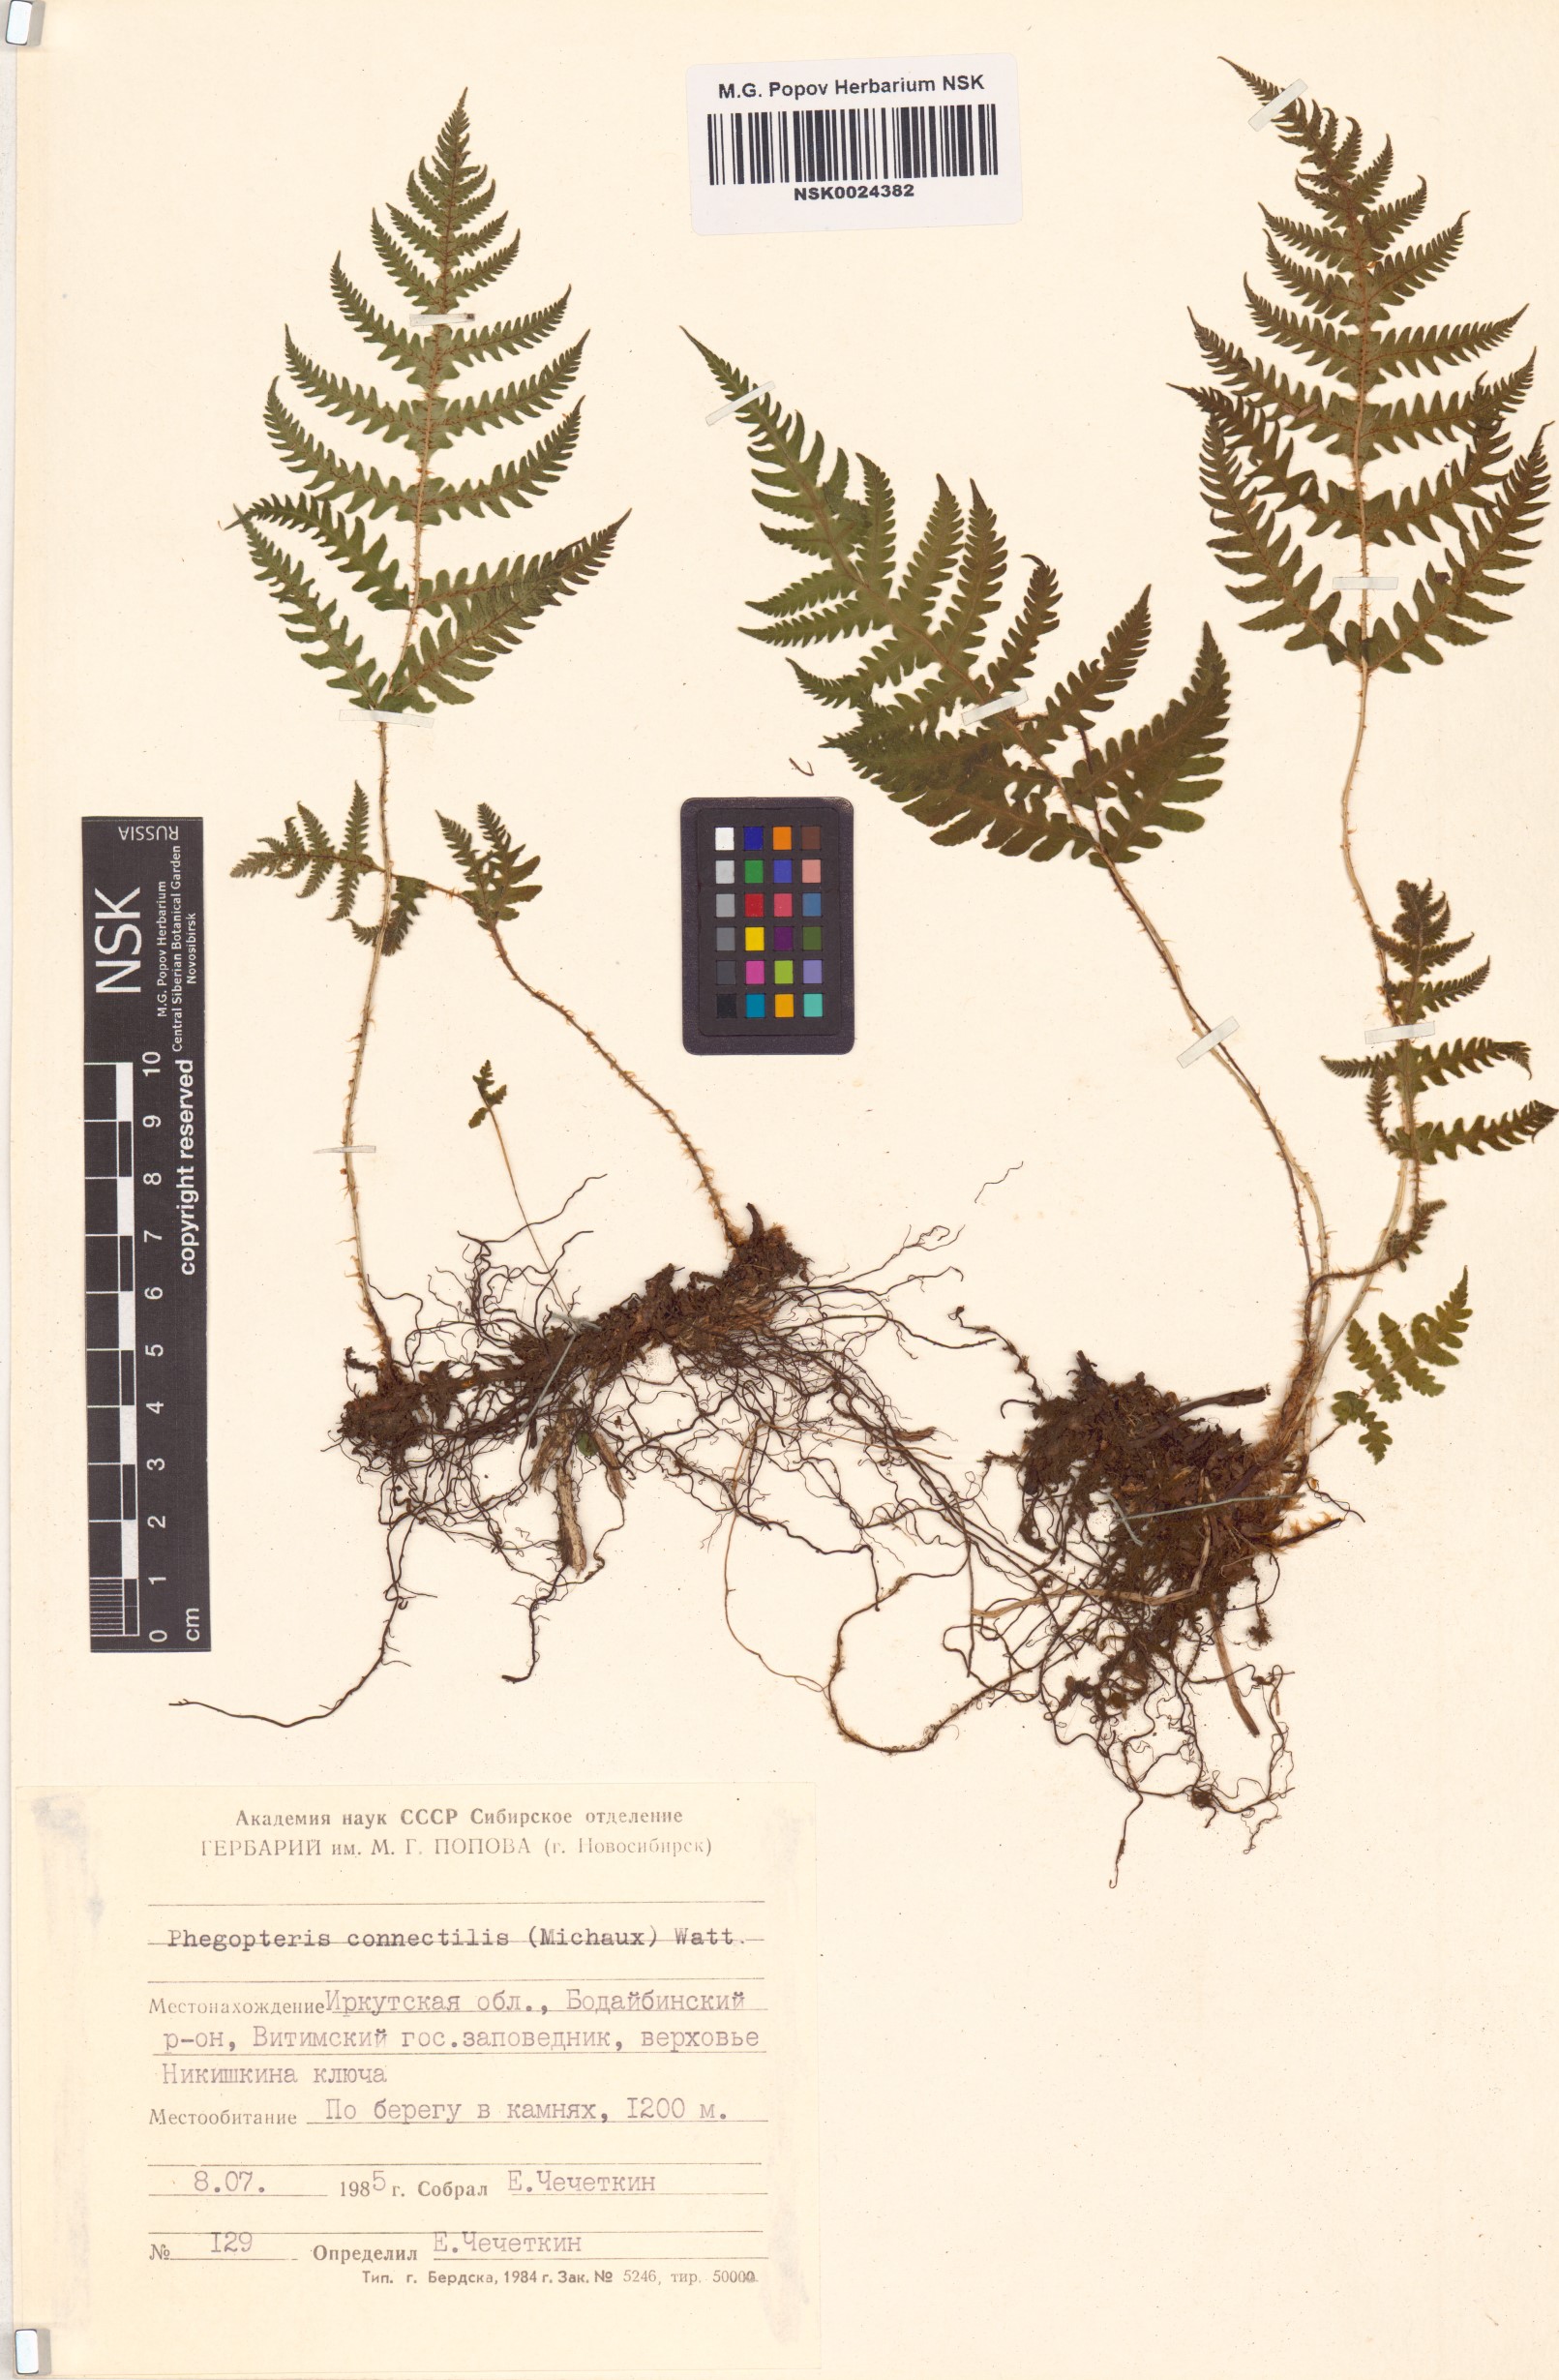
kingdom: Plantae
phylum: Tracheophyta
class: Polypodiopsida
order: Polypodiales
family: Thelypteridaceae
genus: Phegopteris
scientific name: Phegopteris connectilis
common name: Beech fern
